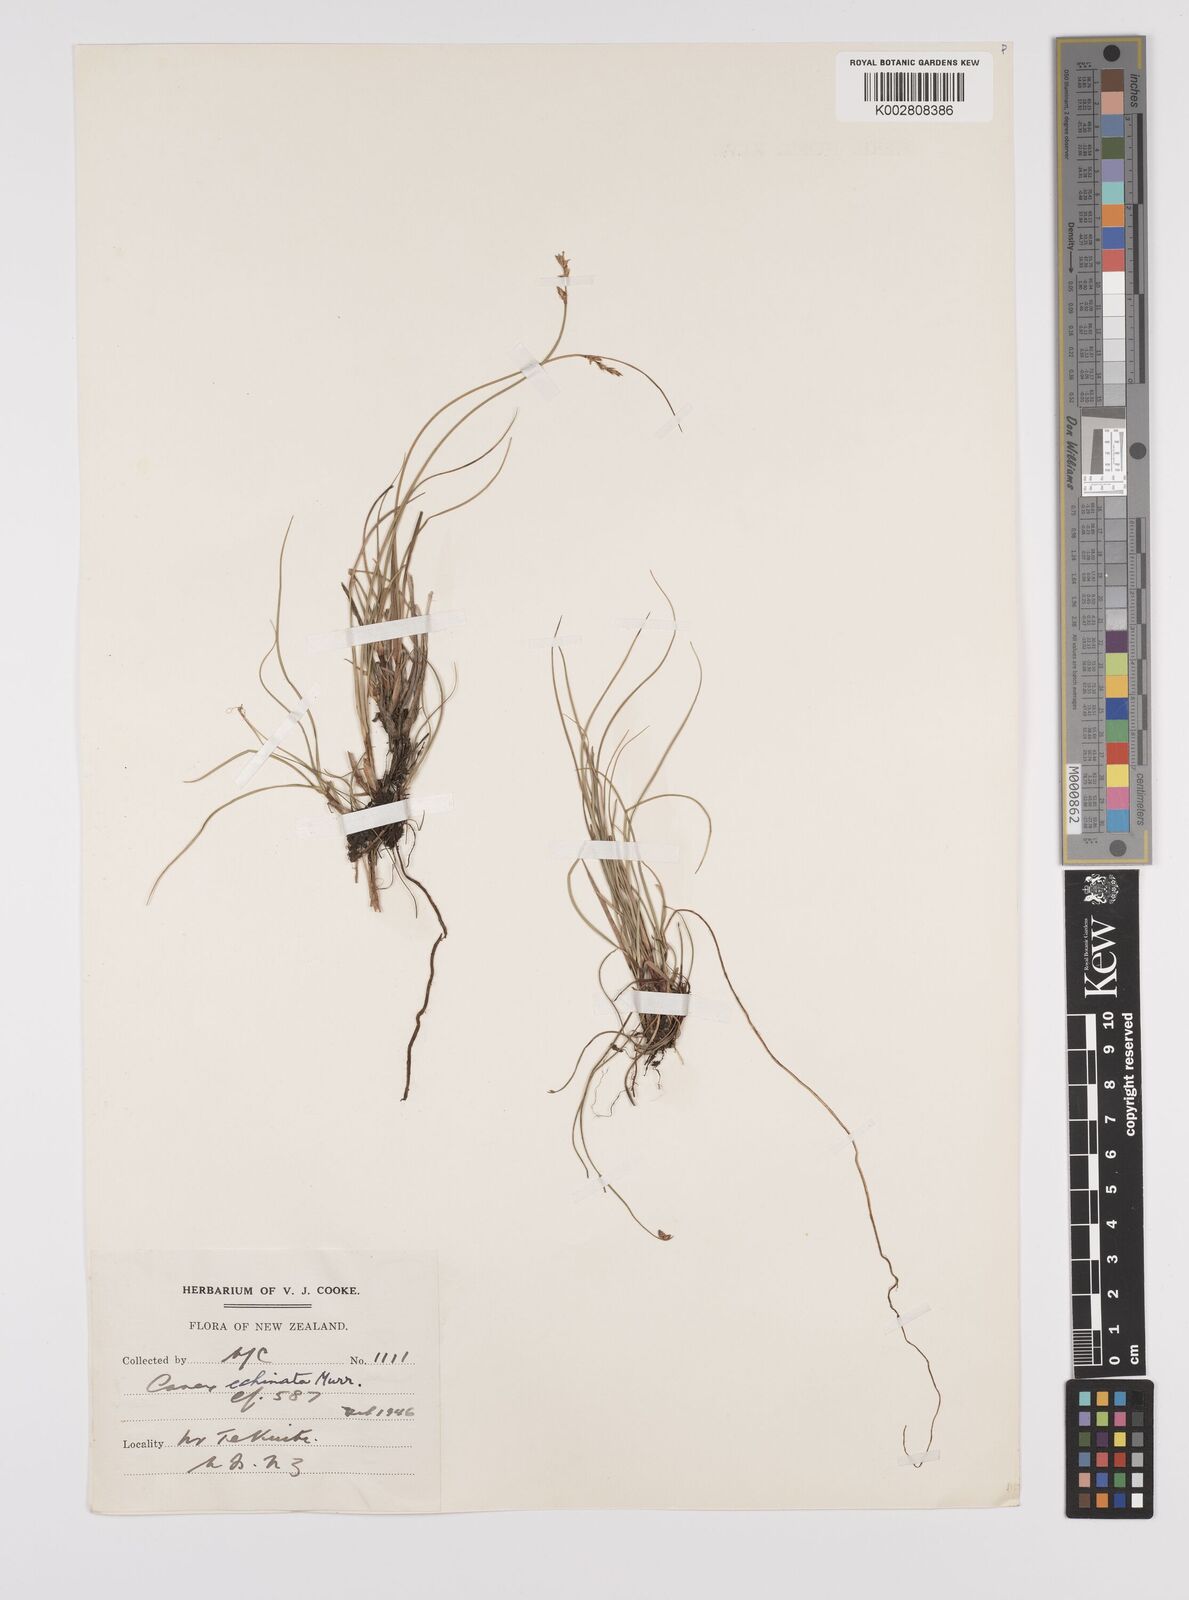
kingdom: Plantae
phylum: Tracheophyta
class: Liliopsida
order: Poales
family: Cyperaceae
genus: Carex
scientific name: Carex echinata
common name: Star sedge
